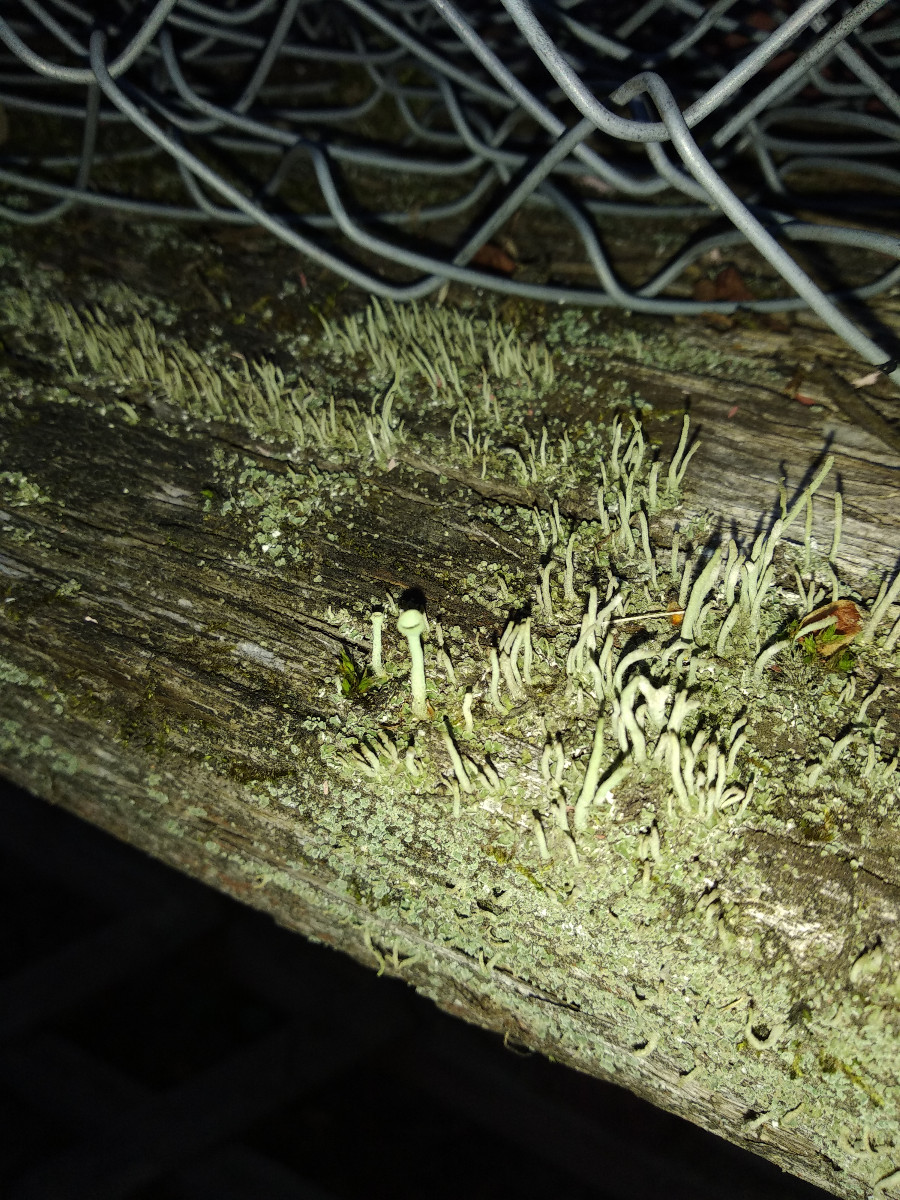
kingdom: Fungi
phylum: Ascomycota
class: Lecanoromycetes
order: Lecanorales
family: Cladoniaceae
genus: Cladonia
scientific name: Cladonia
